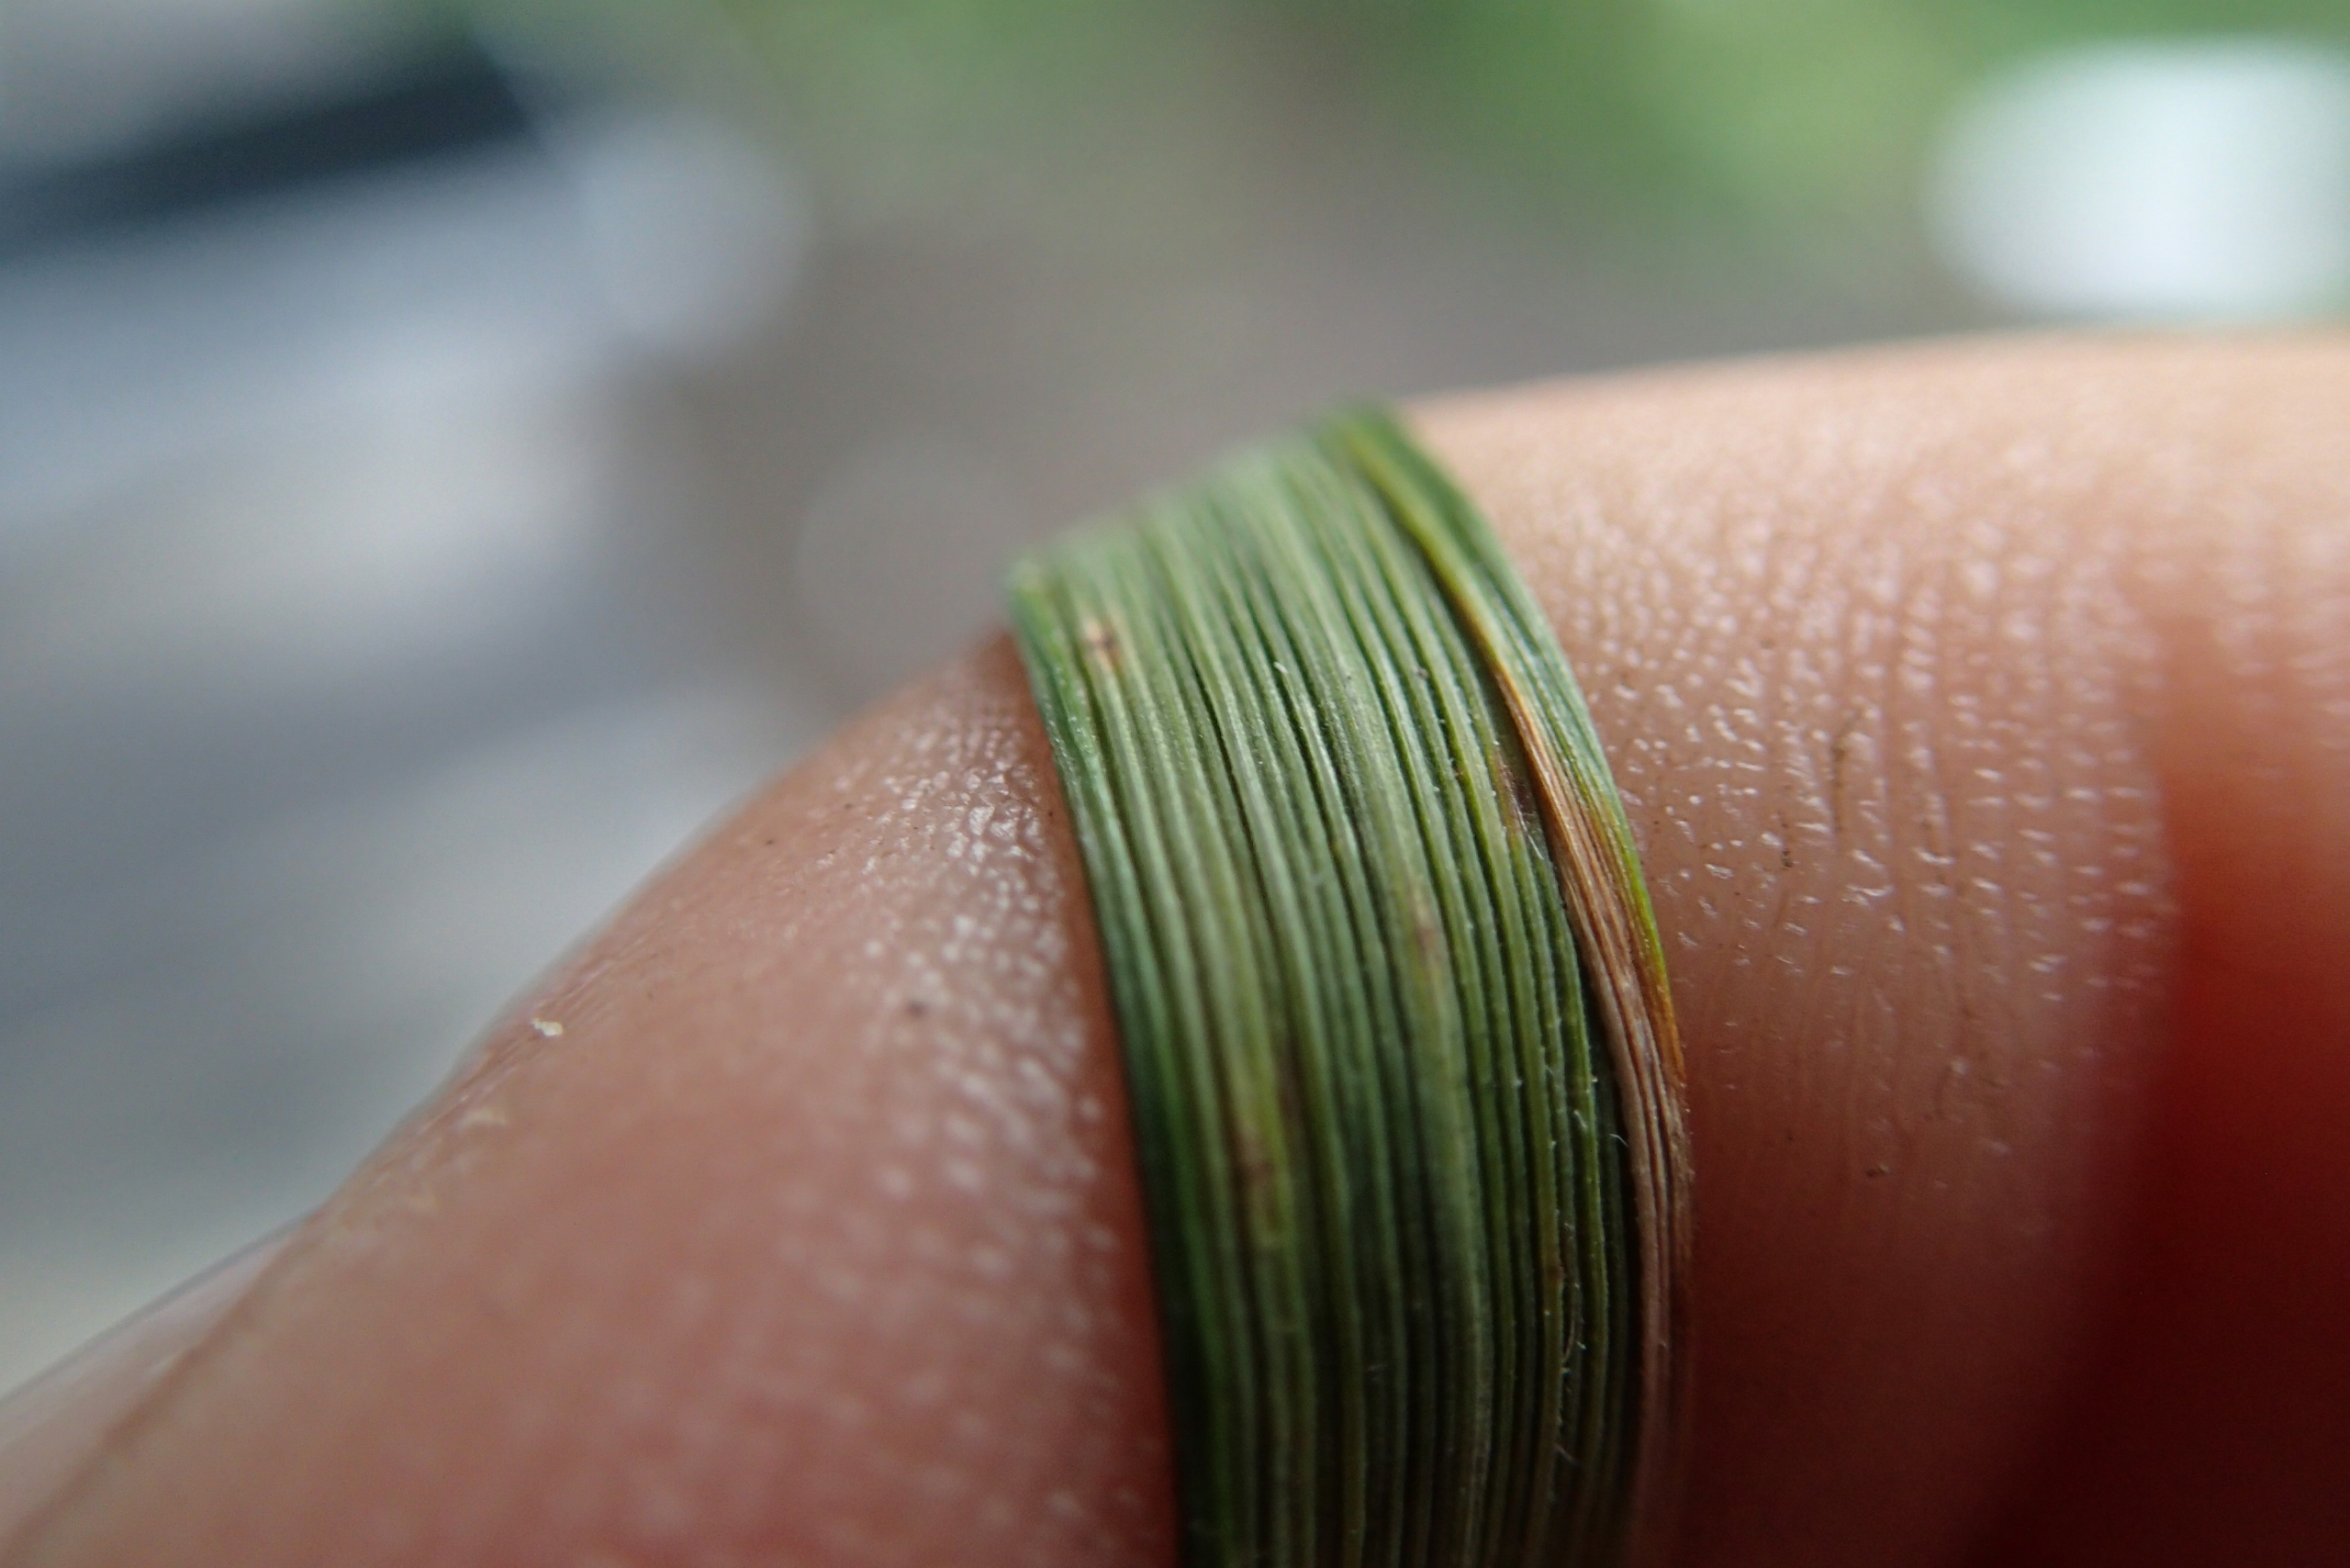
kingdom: Plantae
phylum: Tracheophyta
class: Liliopsida
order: Poales
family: Poaceae
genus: Calamagrostis
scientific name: Calamagrostis epigejos
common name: Bjerg-rørhvene
